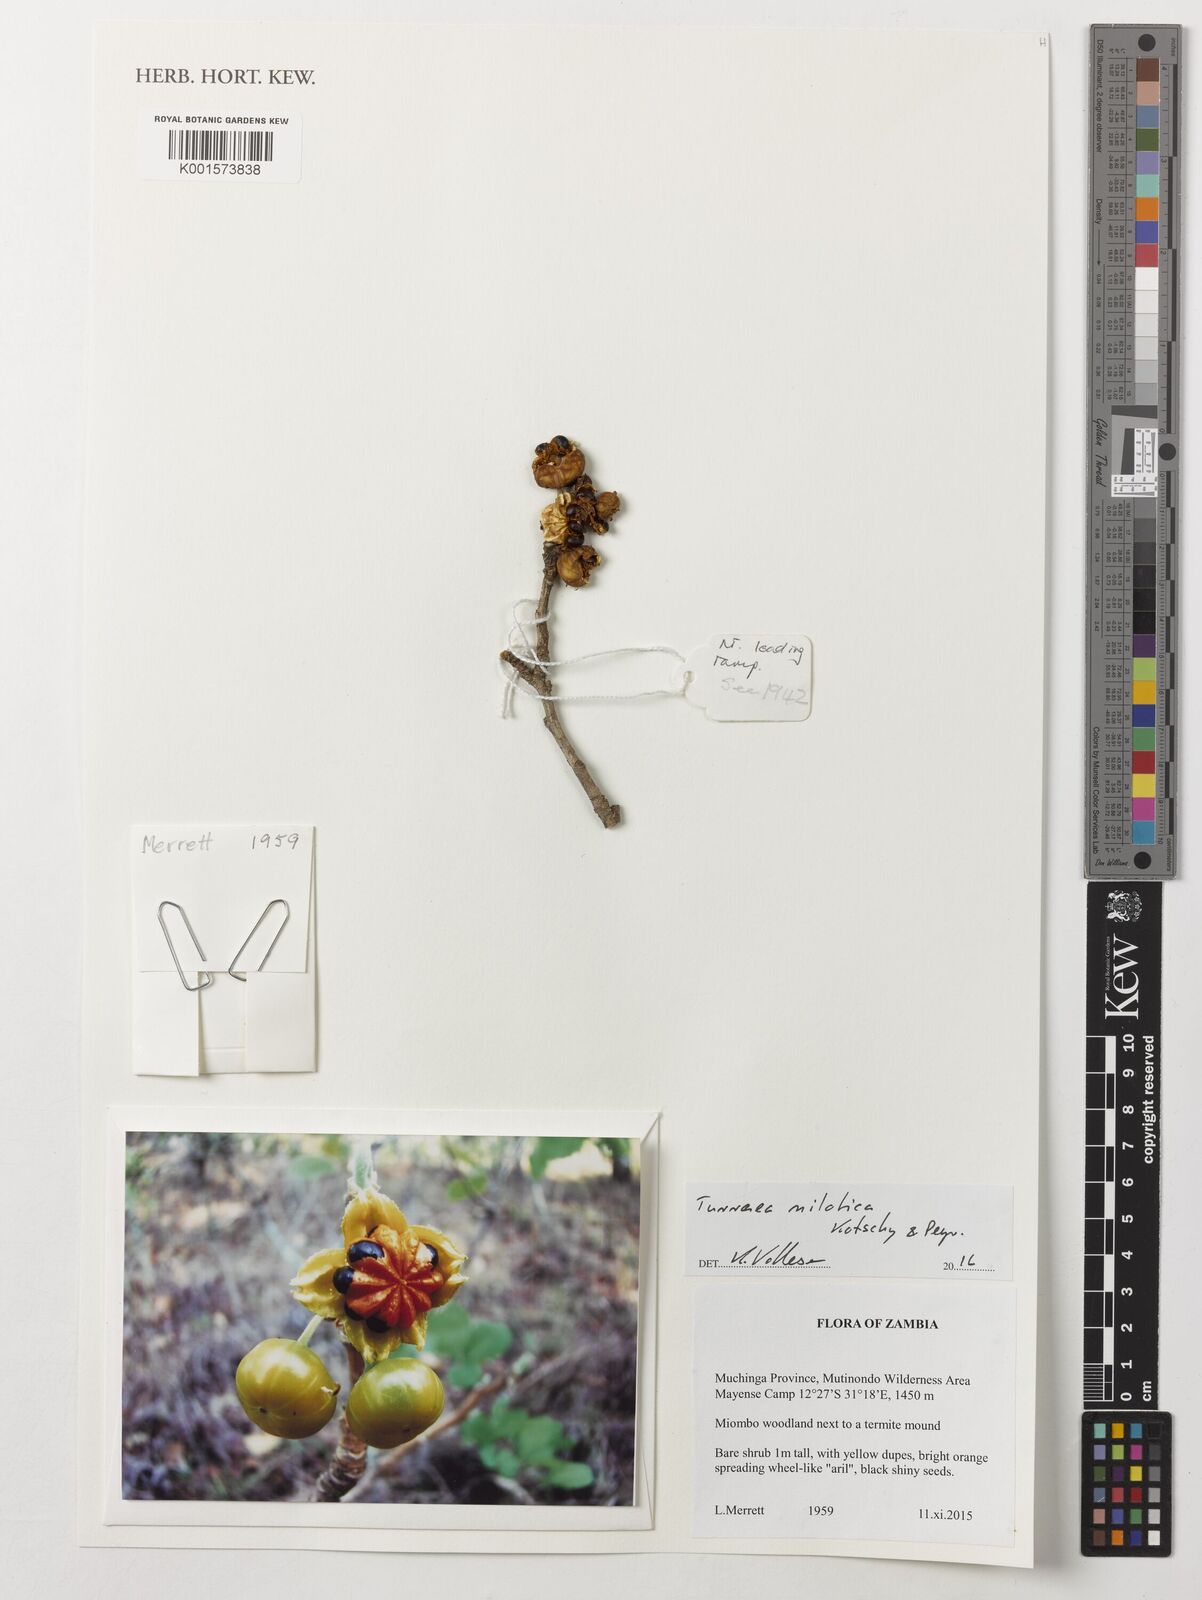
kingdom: Plantae
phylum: Tracheophyta
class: Magnoliopsida
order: Sapindales
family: Meliaceae
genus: Turraea
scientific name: Turraea nilotica
